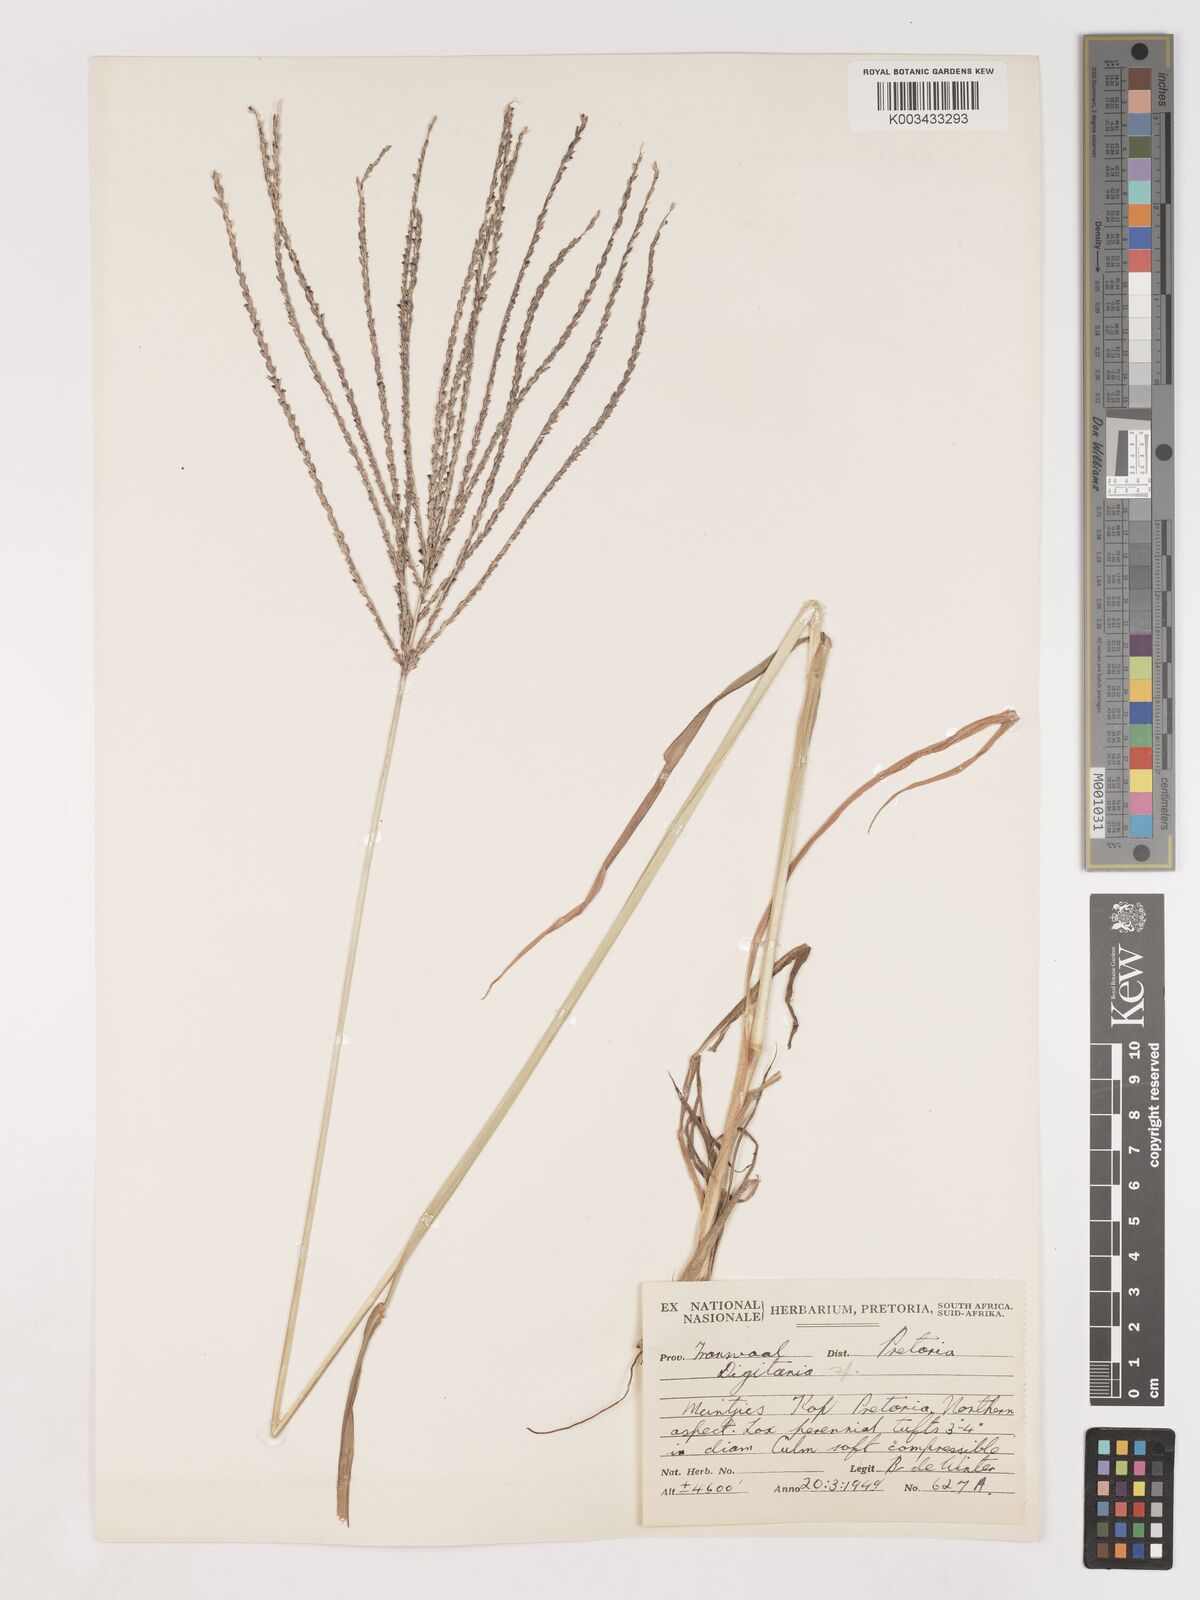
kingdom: Plantae
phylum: Tracheophyta
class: Liliopsida
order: Poales
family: Poaceae
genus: Digitaria
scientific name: Digitaria eriantha
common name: Digitgrass
